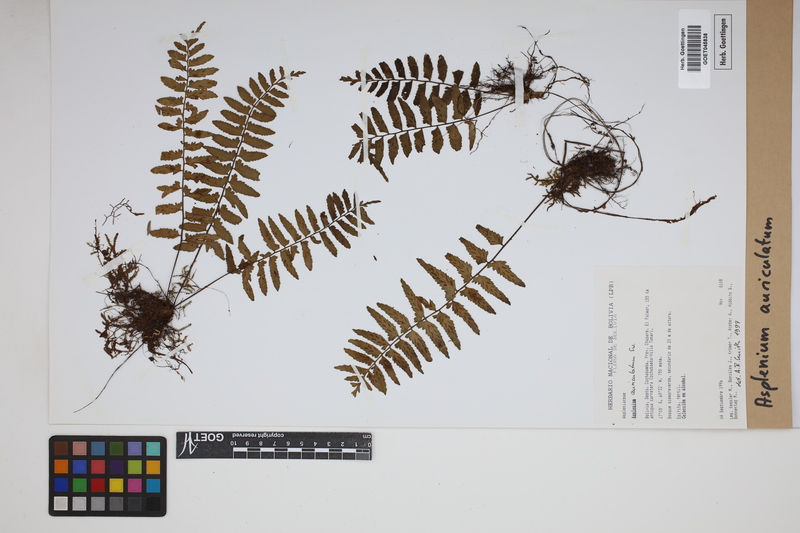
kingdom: Plantae
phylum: Tracheophyta
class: Polypodiopsida
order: Polypodiales
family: Aspleniaceae
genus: Asplenium
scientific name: Asplenium auriculatum
